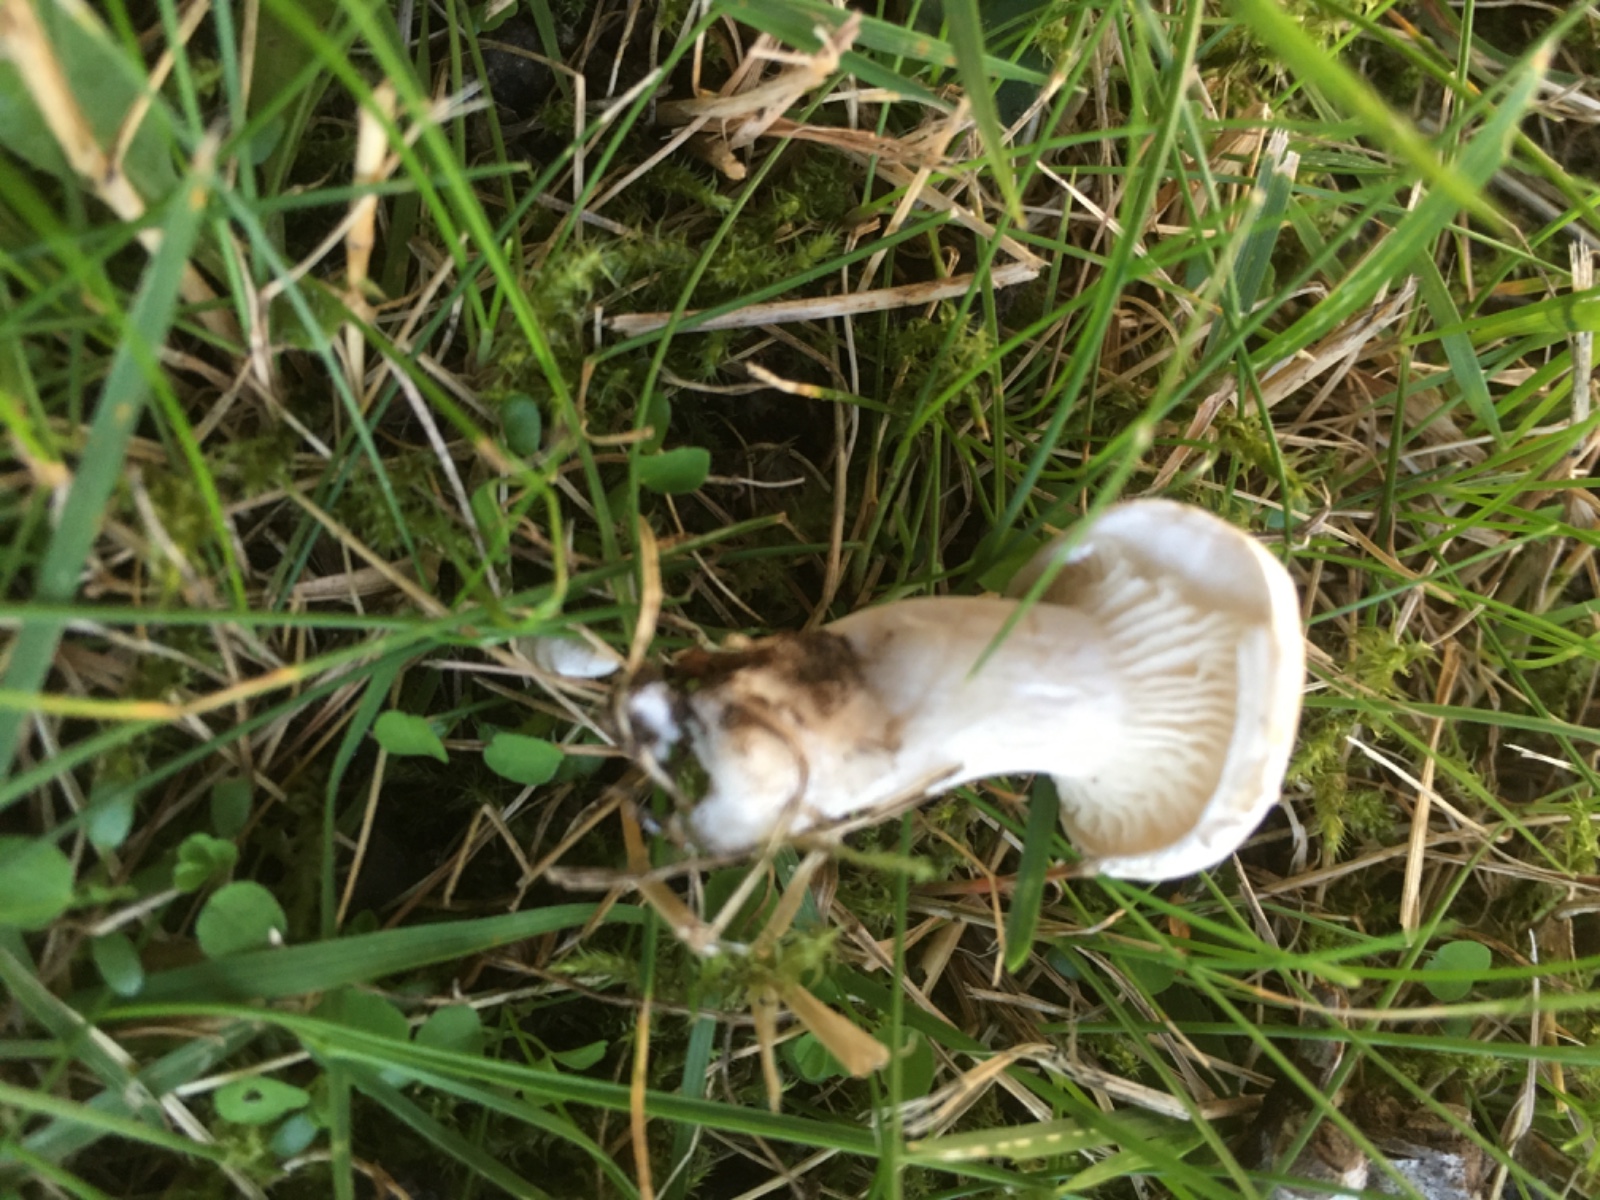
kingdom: Fungi
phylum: Basidiomycota
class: Agaricomycetes
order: Agaricales
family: Entolomataceae
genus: Clitopilus
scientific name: Clitopilus prunulus
